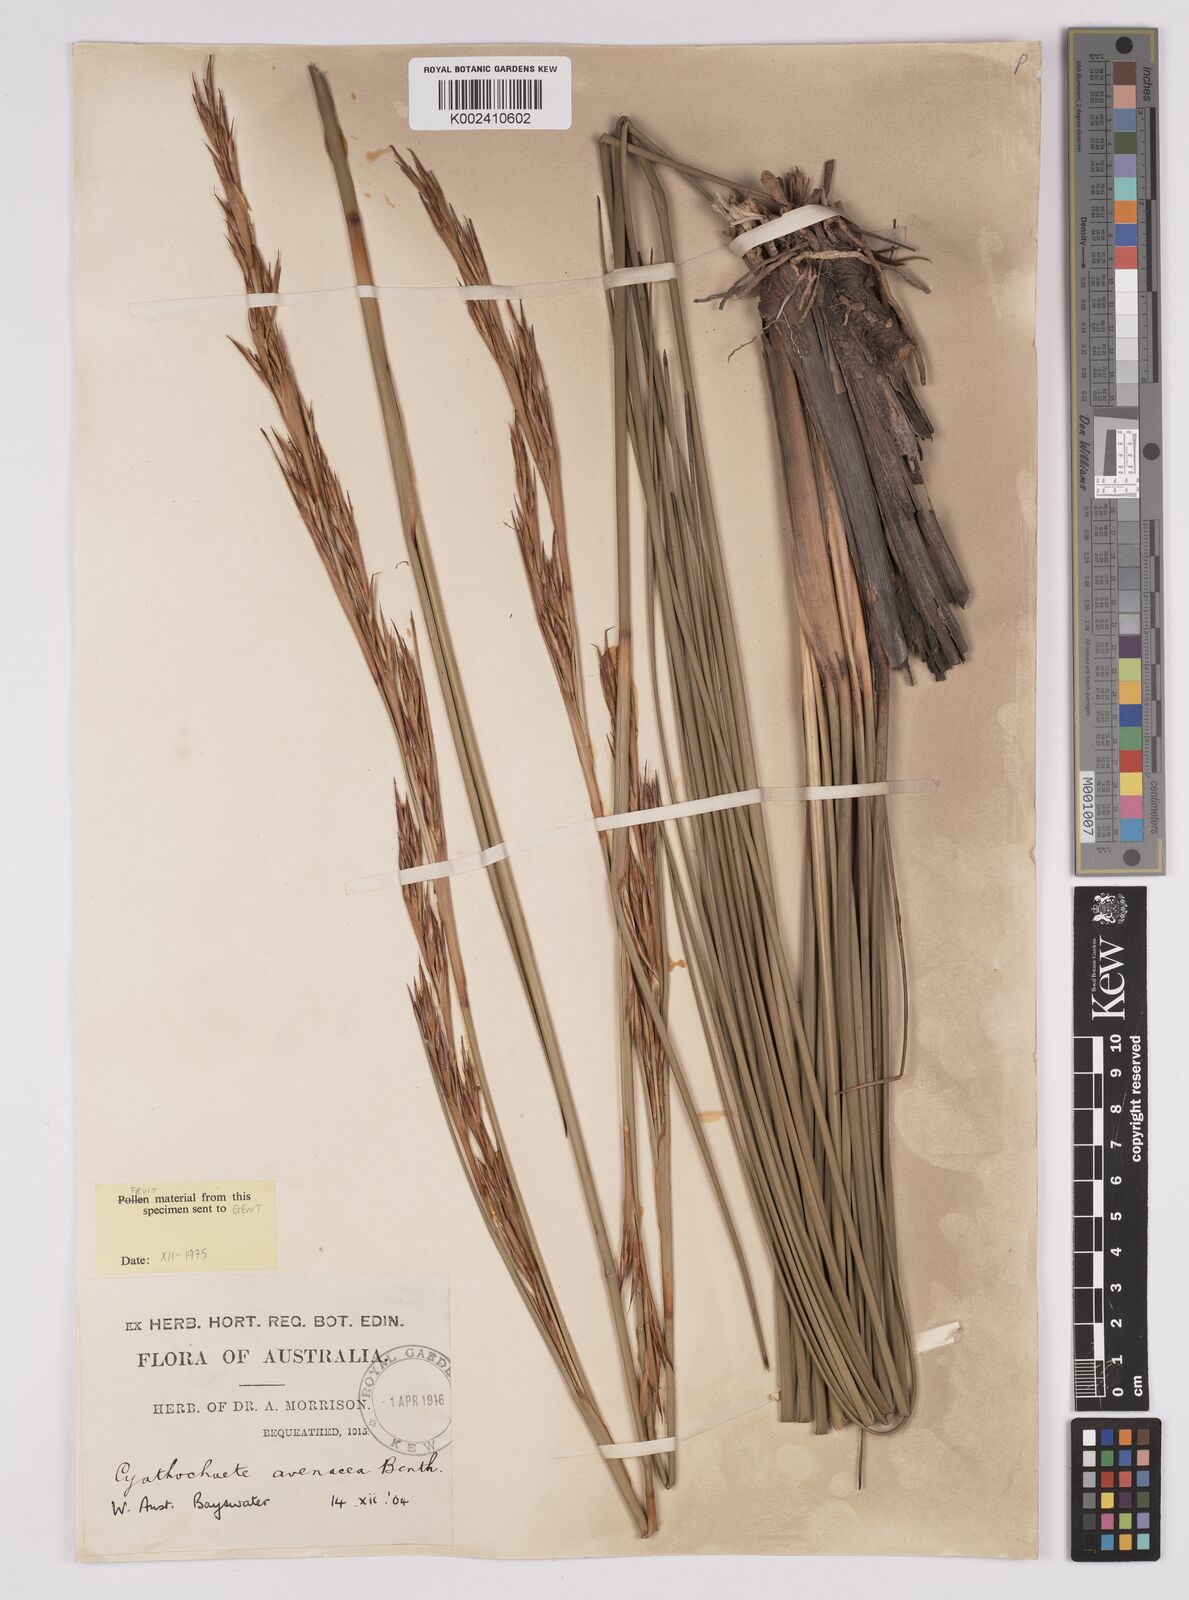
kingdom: Plantae
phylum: Tracheophyta
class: Liliopsida
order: Poales
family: Cyperaceae
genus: Cyathochaeta
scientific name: Cyathochaeta avenacea
